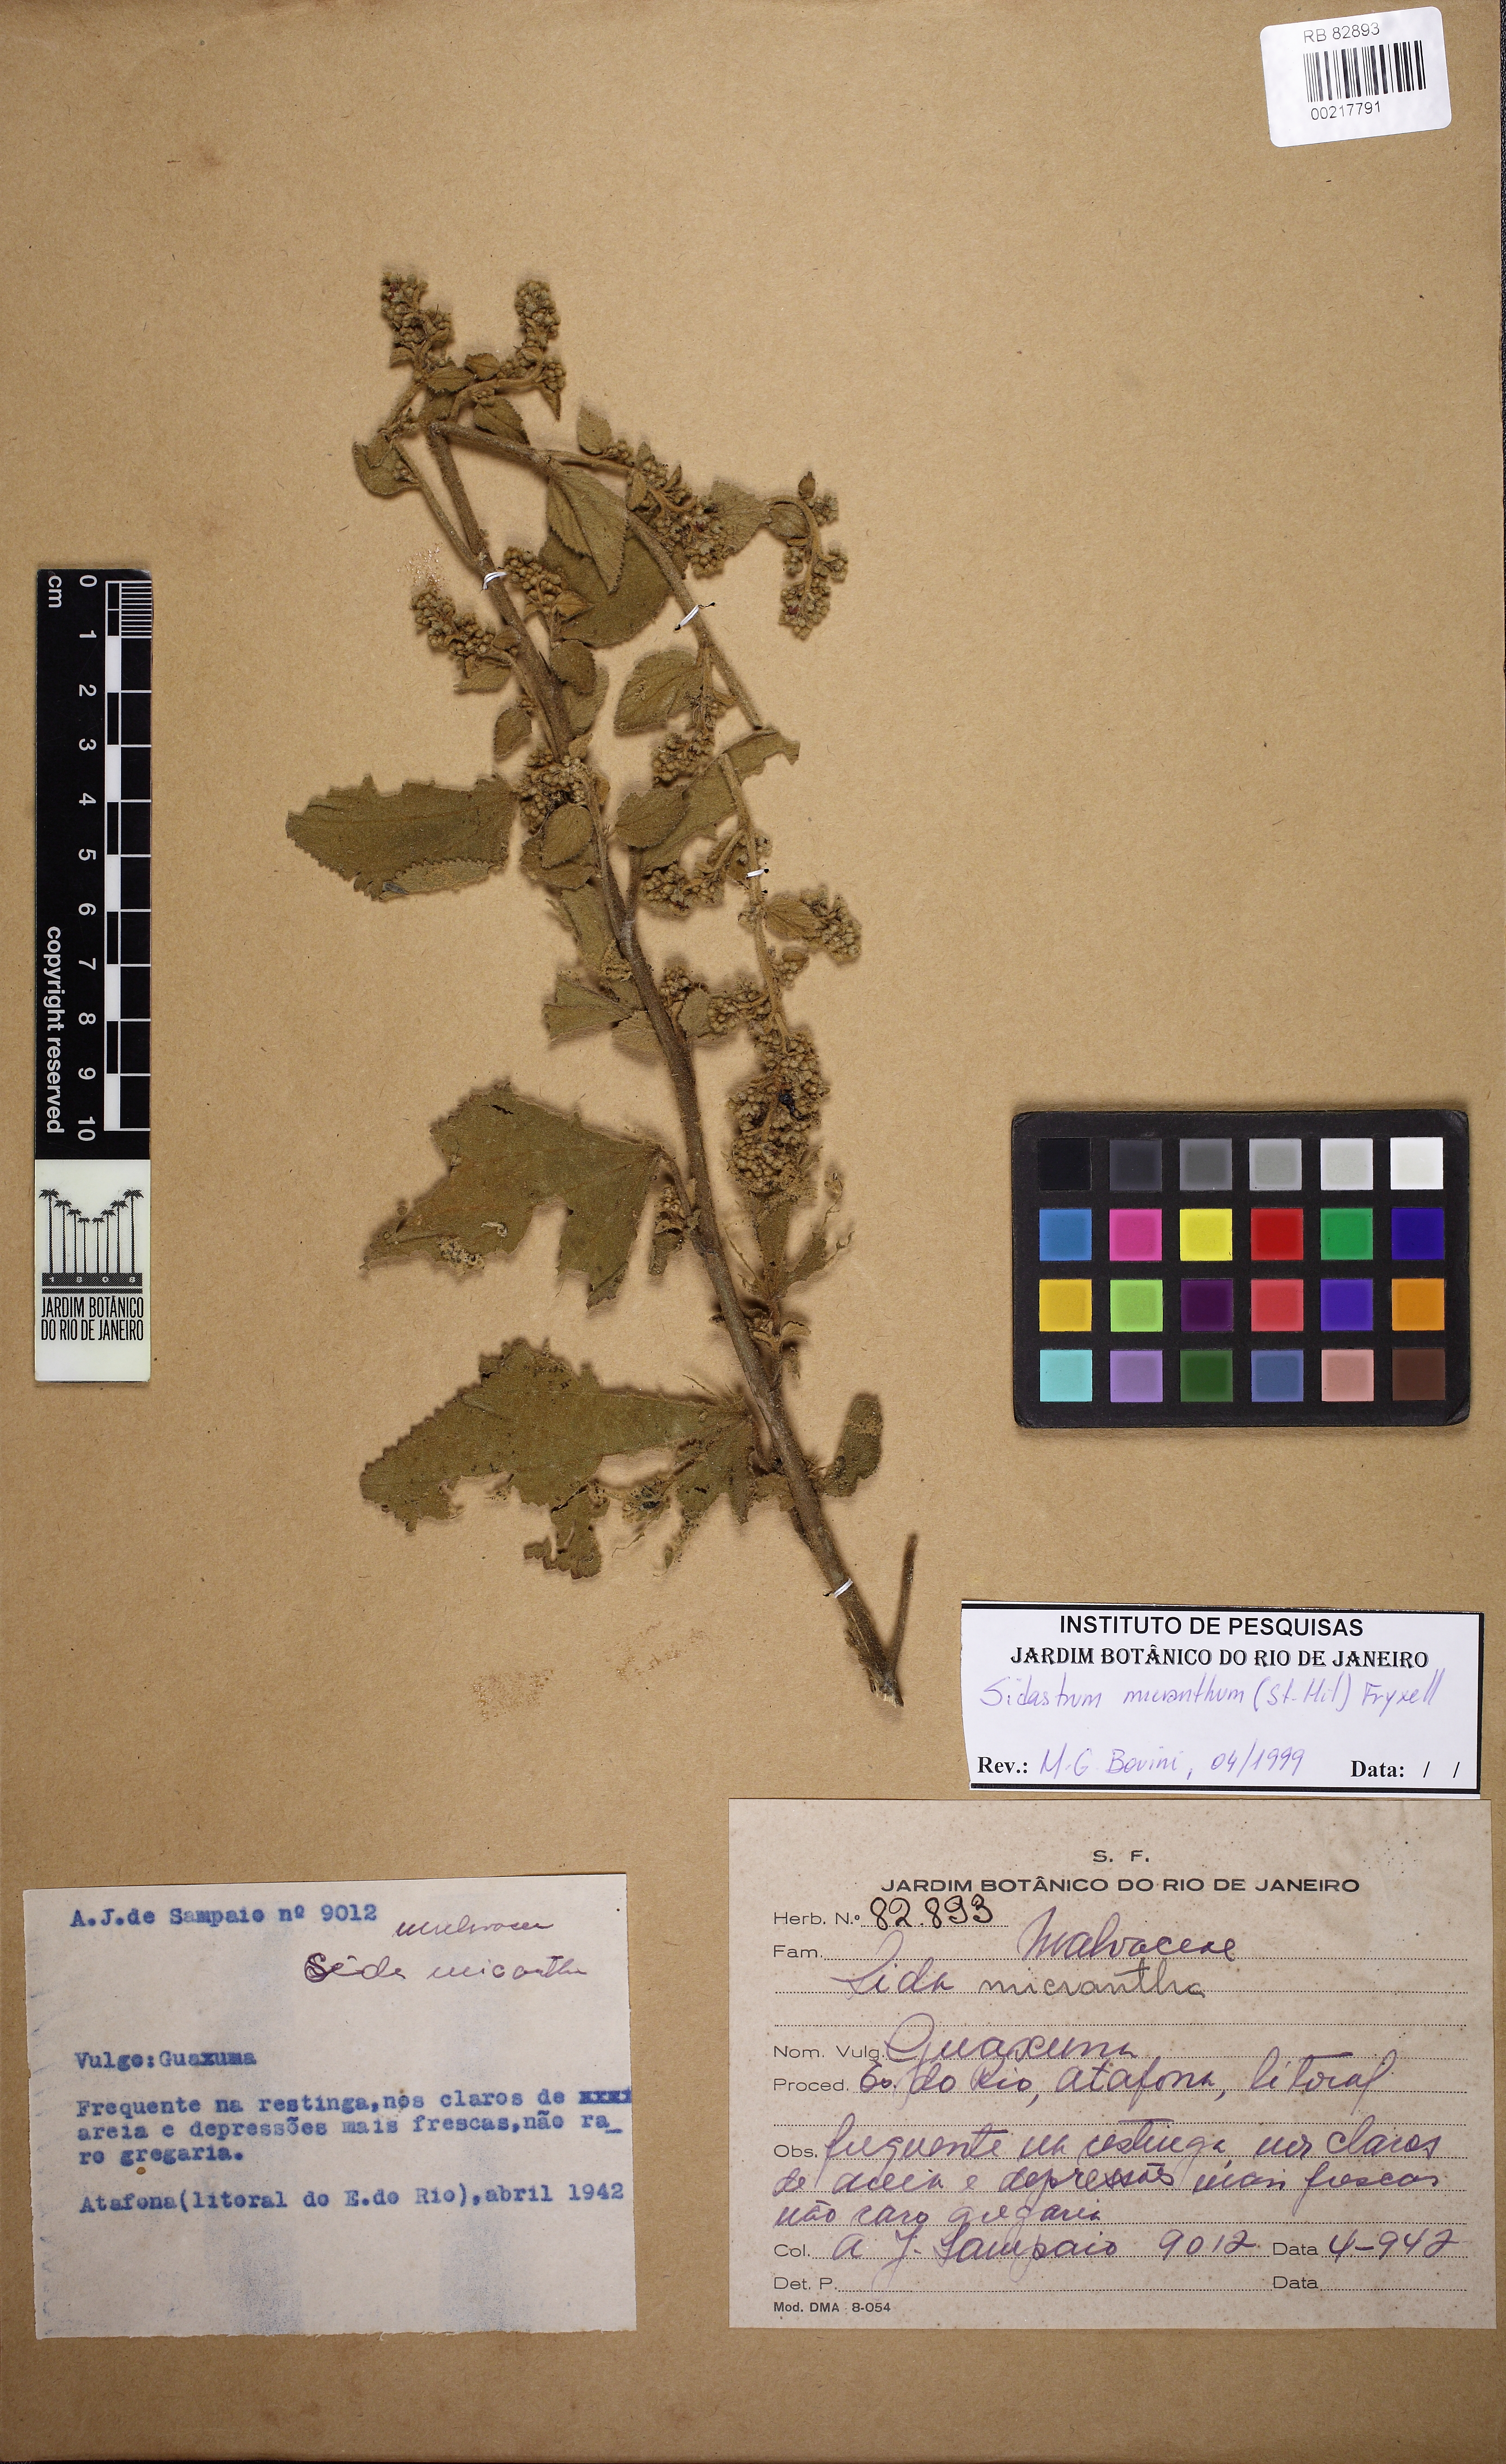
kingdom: Plantae
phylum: Tracheophyta
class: Magnoliopsida
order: Malvales
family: Malvaceae
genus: Sidastrum
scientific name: Sidastrum micranthum
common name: Dainty sandmallow
